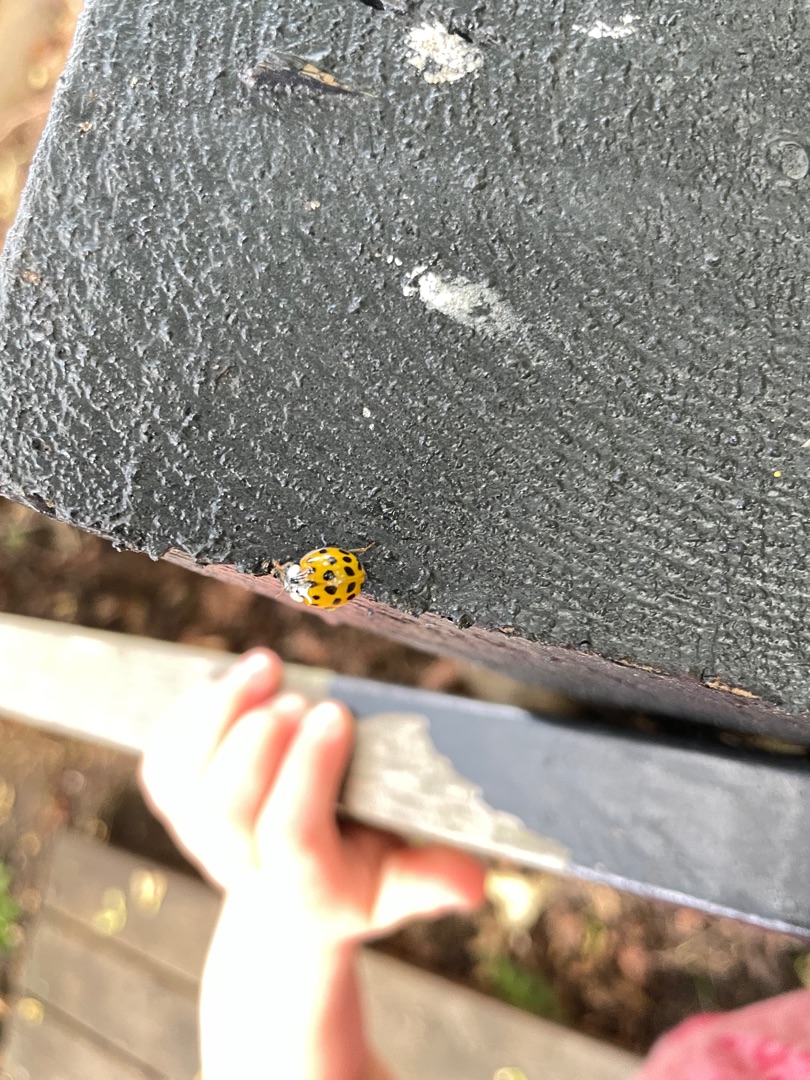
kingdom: Animalia
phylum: Arthropoda
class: Insecta
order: Coleoptera
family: Coccinellidae
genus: Harmonia
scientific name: Harmonia axyridis
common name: Harlekinmariehøne
